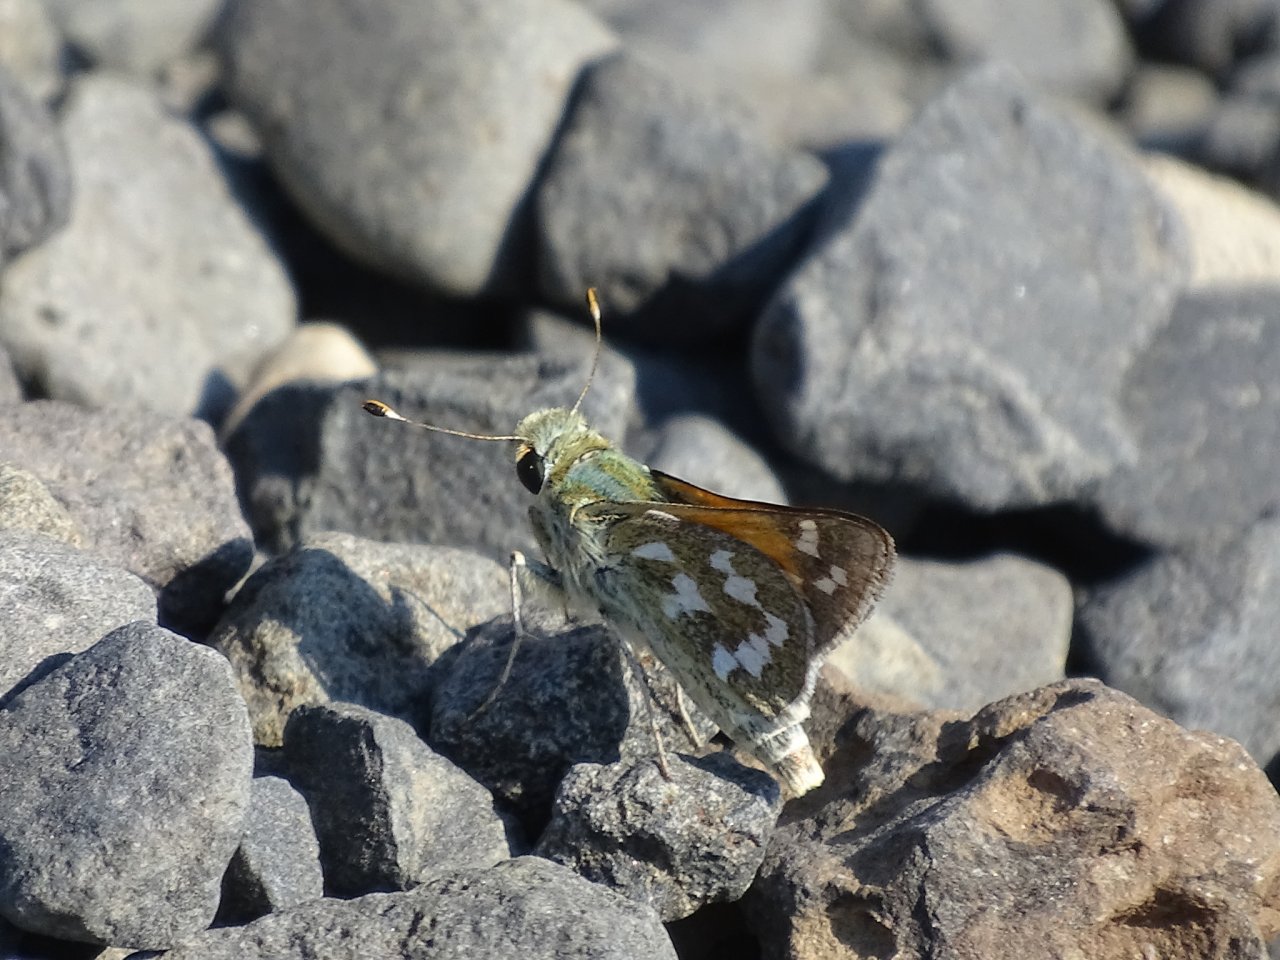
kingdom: Animalia
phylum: Arthropoda
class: Insecta
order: Lepidoptera
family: Hesperiidae
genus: Hesperia
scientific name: Hesperia juba
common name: Juba Skipper
